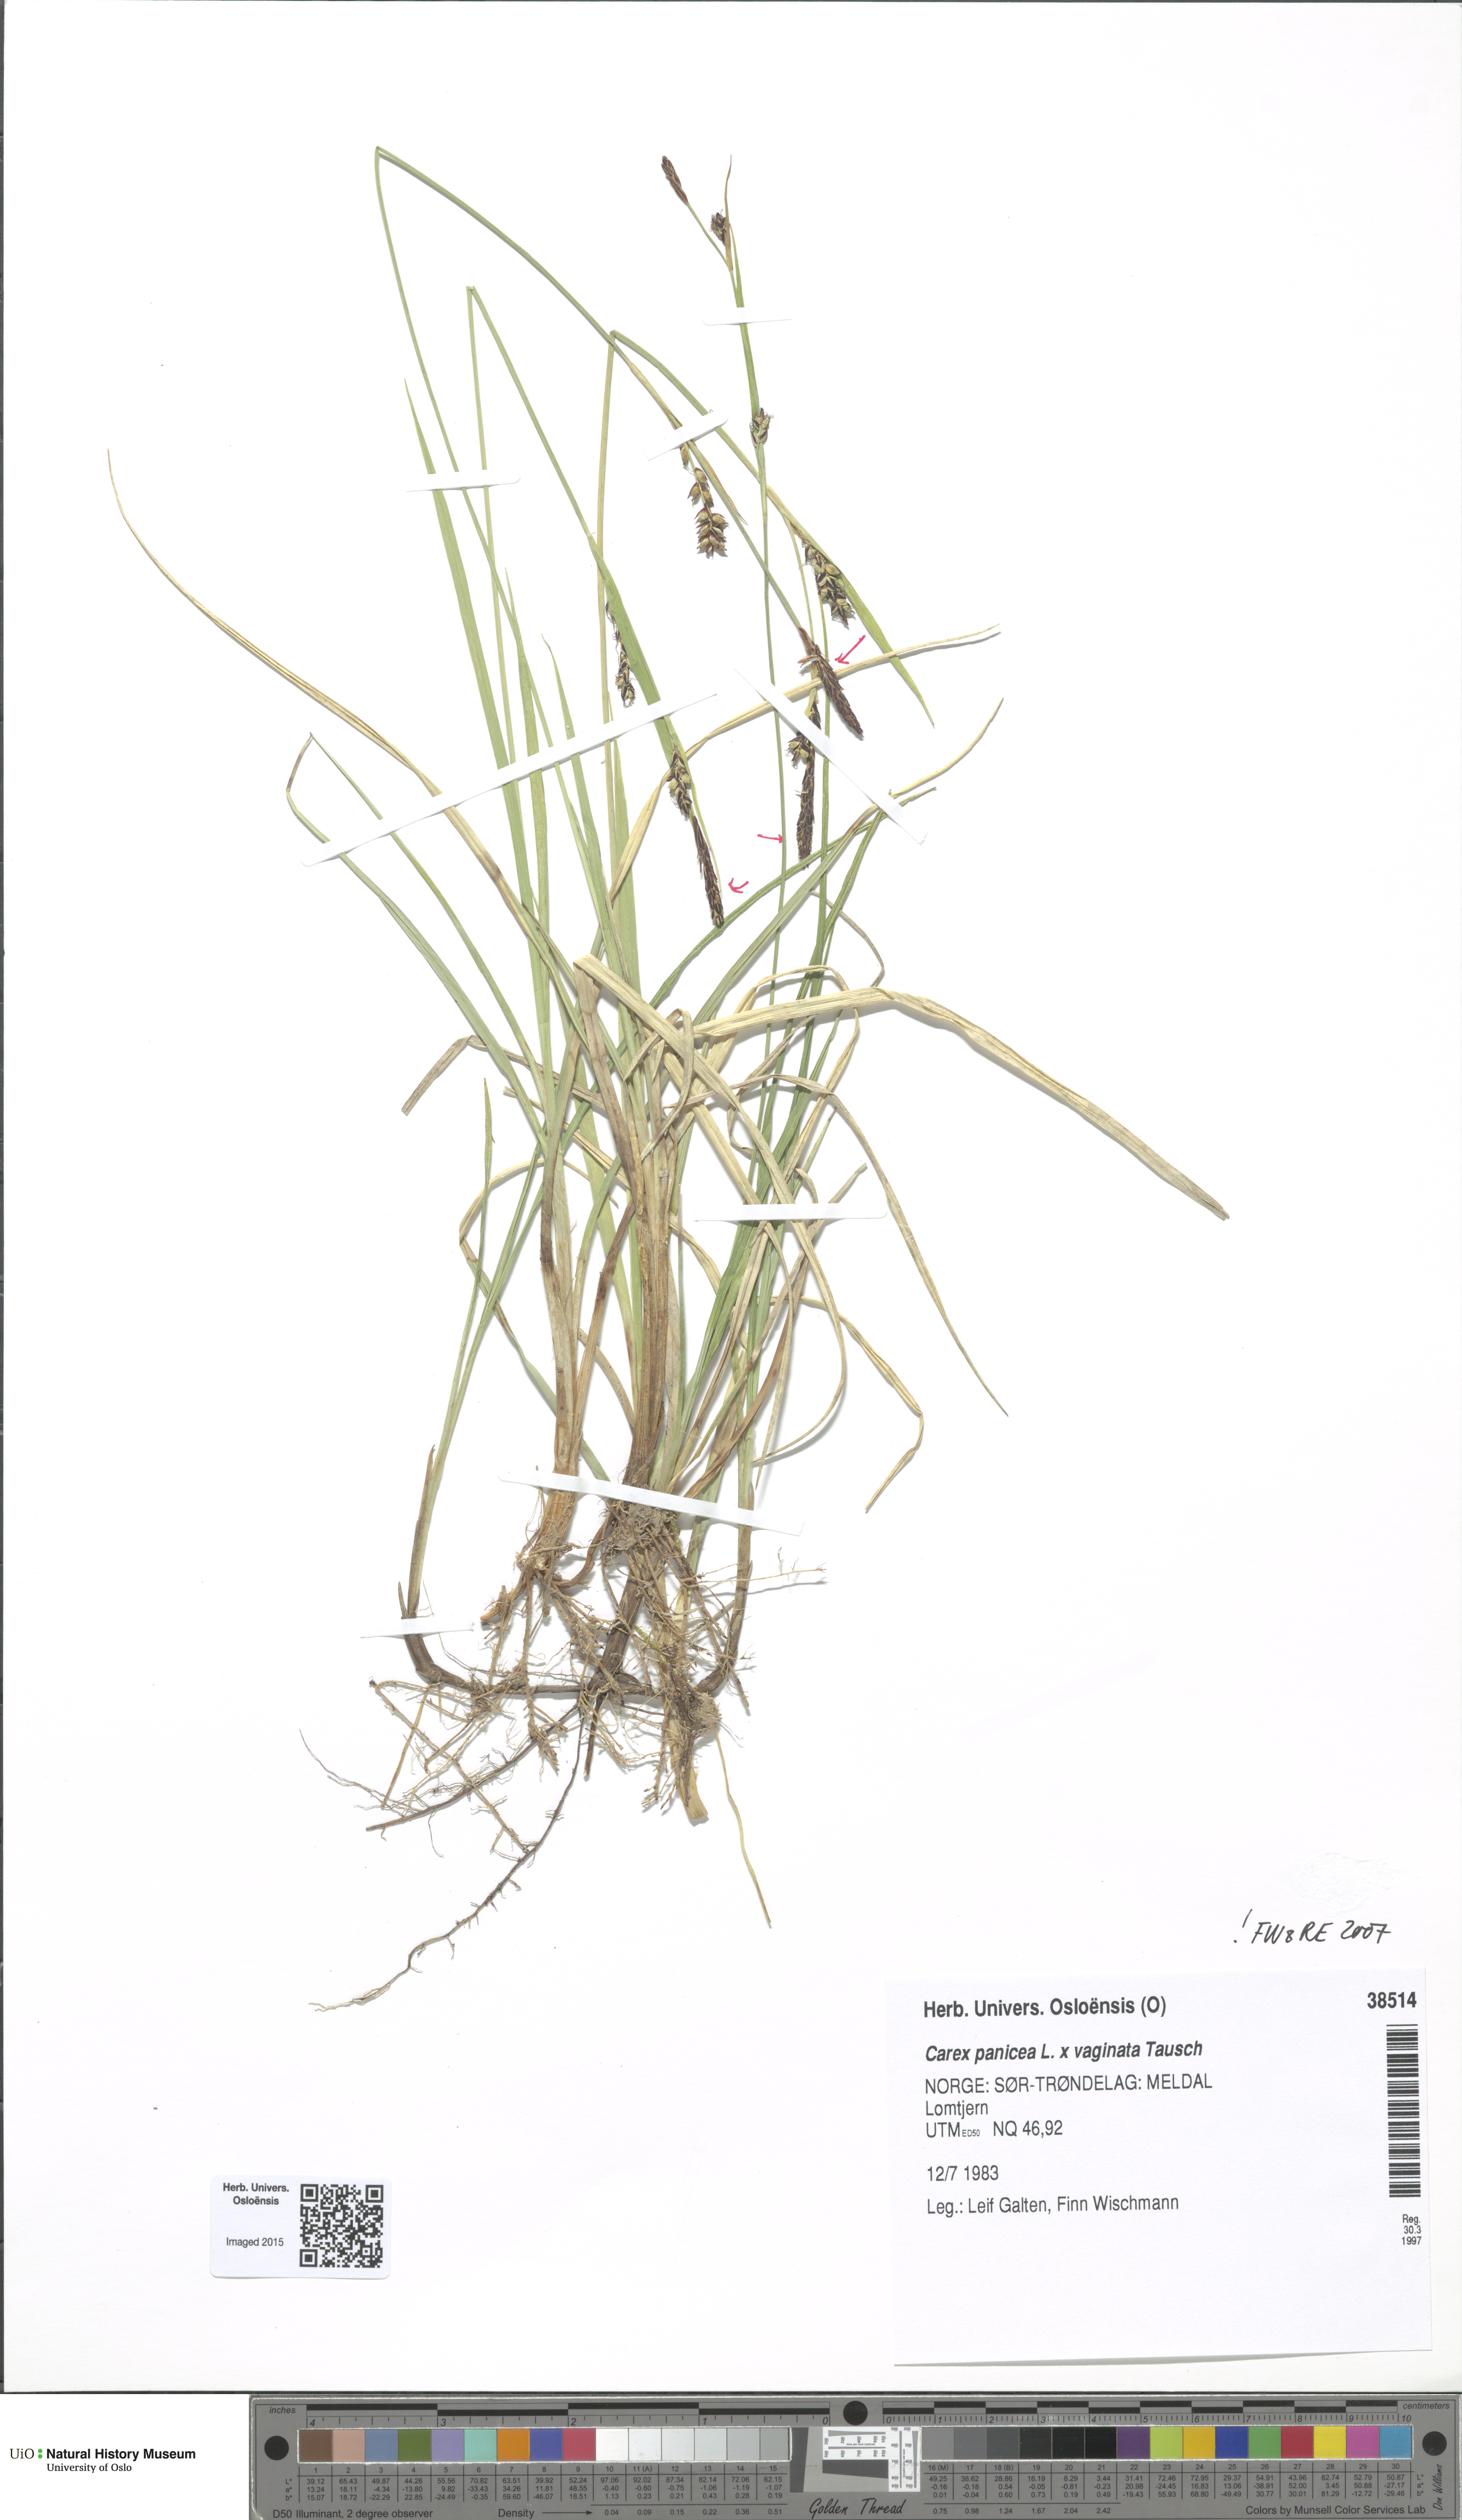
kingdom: Plantae
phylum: Tracheophyta
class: Liliopsida
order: Poales
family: Cyperaceae
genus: Carex
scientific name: Carex
